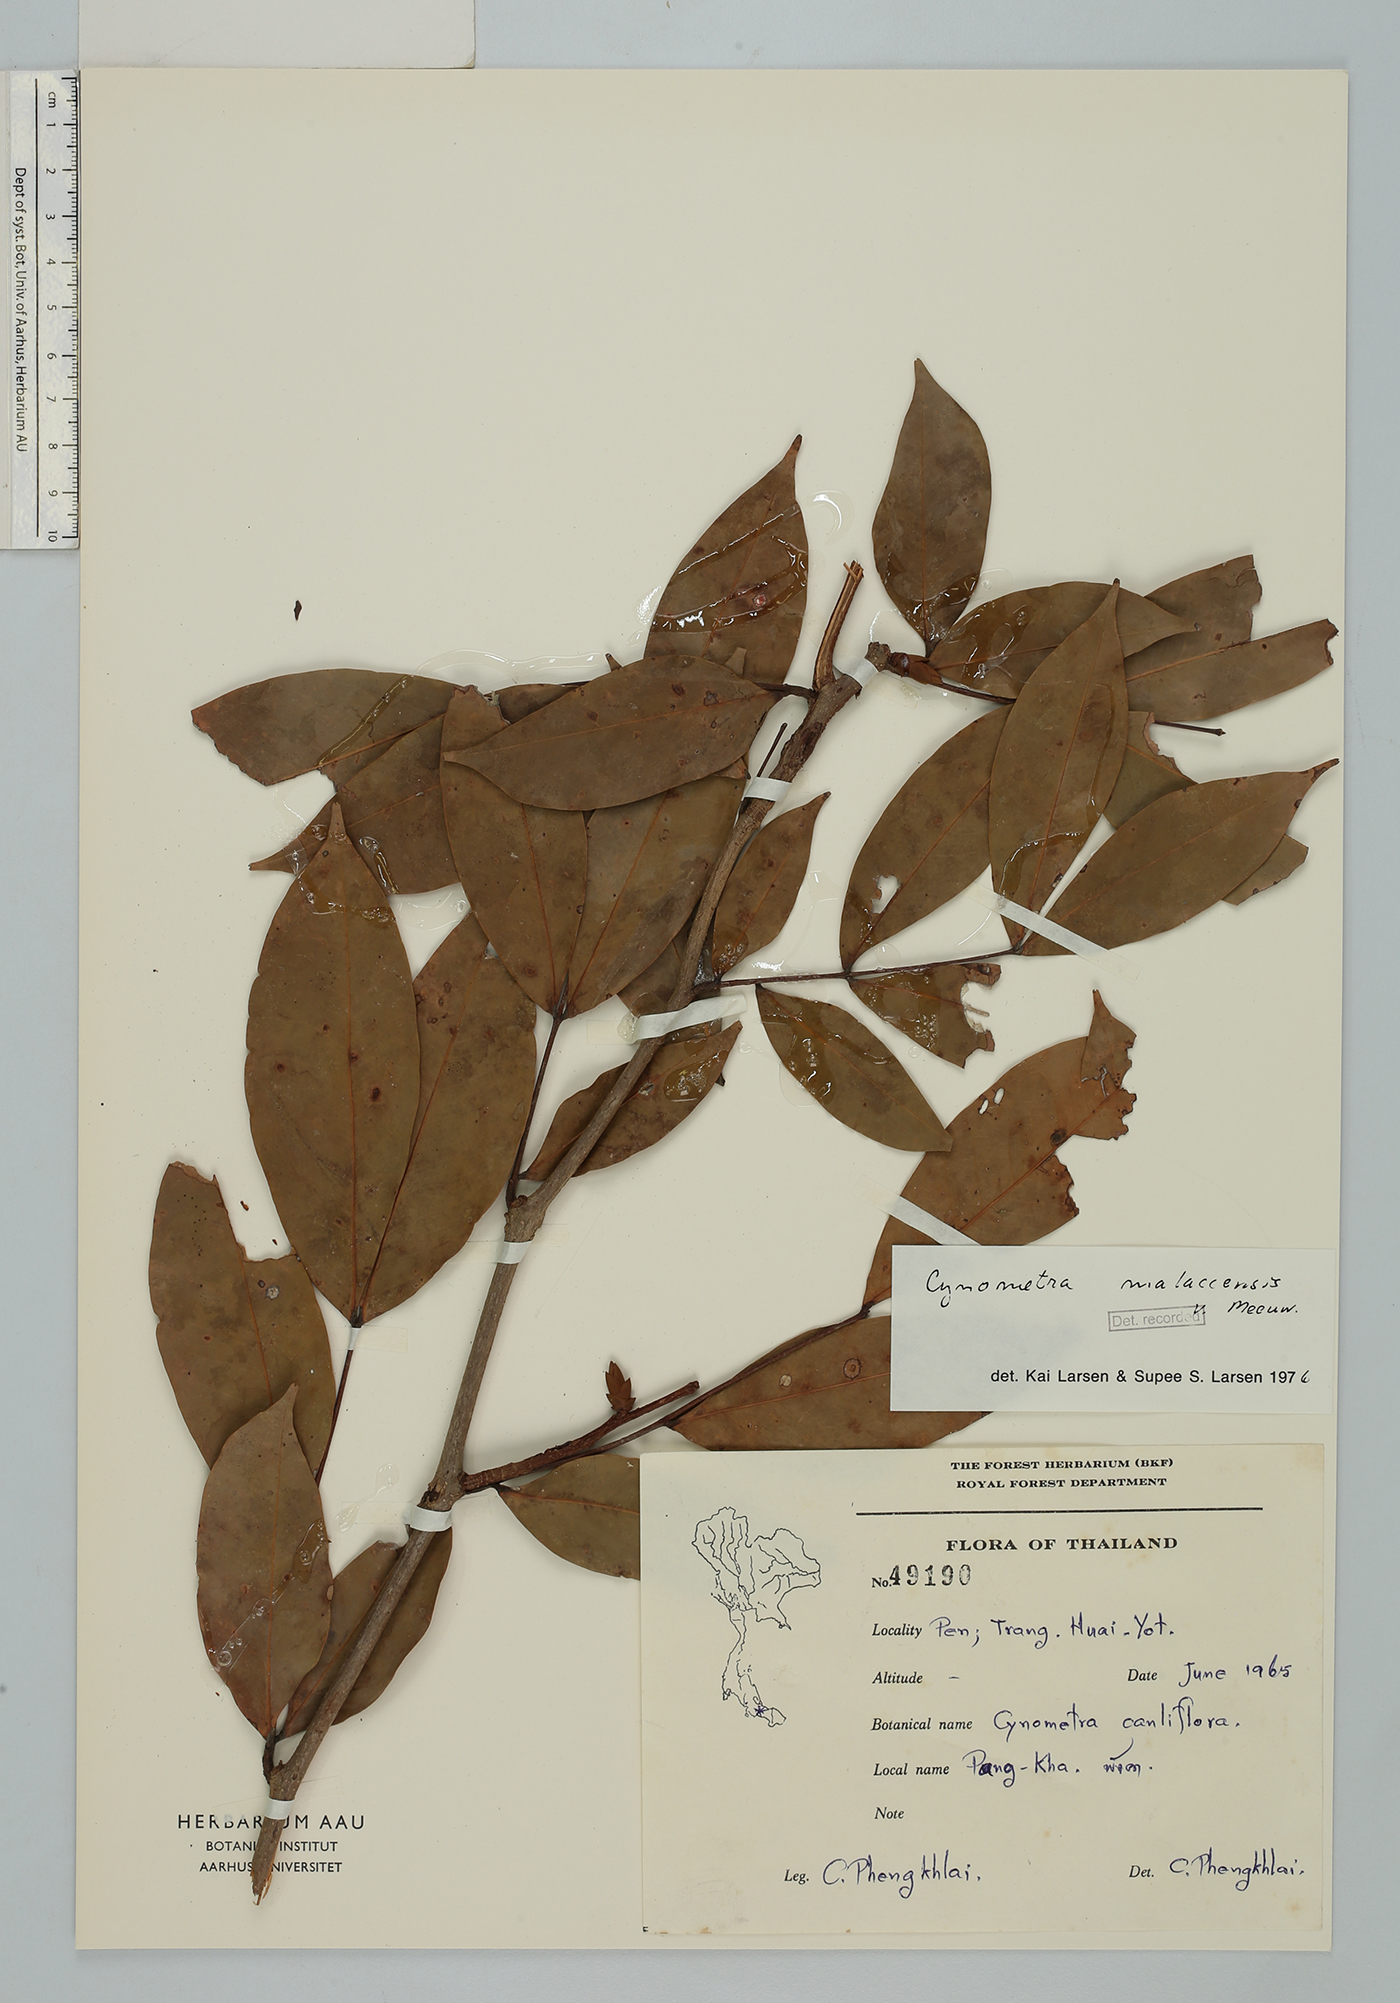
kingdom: Plantae
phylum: Tracheophyta
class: Magnoliopsida
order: Fabales
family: Fabaceae
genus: Cynometra
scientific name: Cynometra malaccensis
